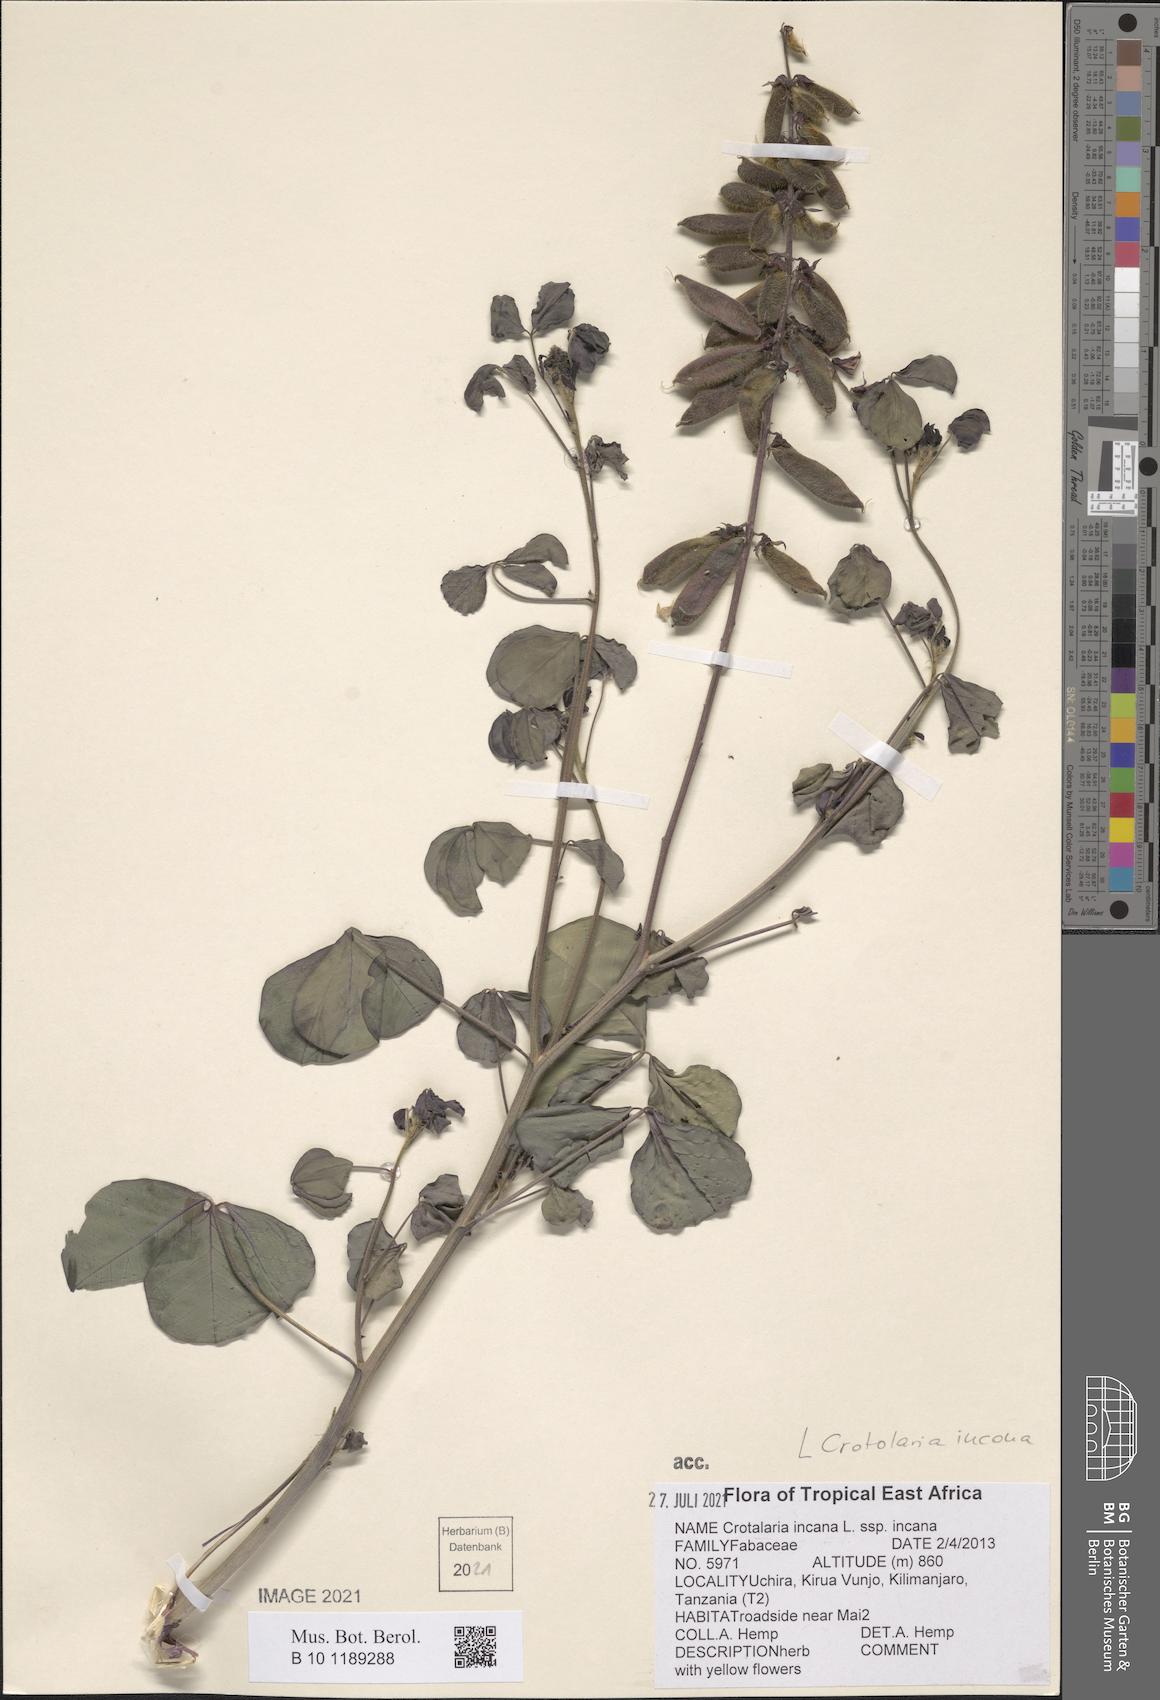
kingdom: Plantae
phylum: Tracheophyta
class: Magnoliopsida
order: Fabales
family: Fabaceae
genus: Crotalaria
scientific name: Crotalaria incana
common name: Shakeshake
